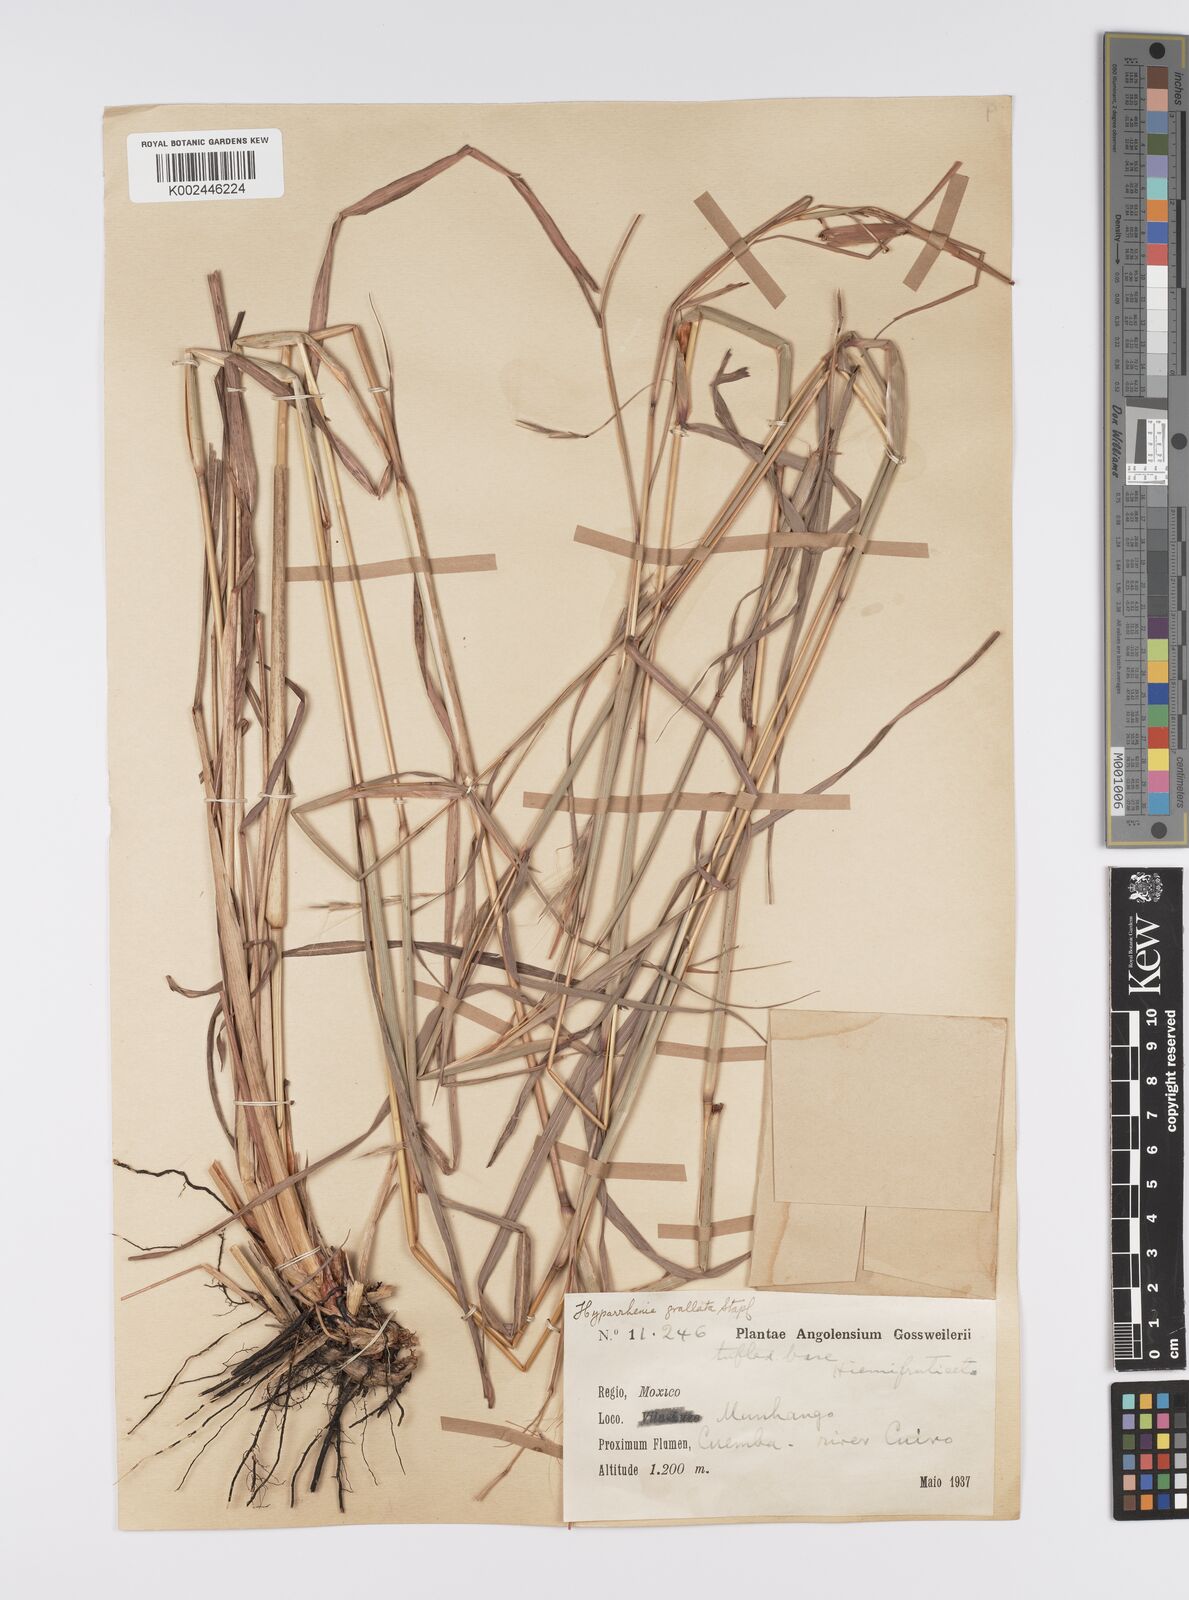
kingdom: Plantae
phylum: Tracheophyta
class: Liliopsida
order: Poales
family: Poaceae
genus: Elymandra
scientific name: Elymandra grallata
